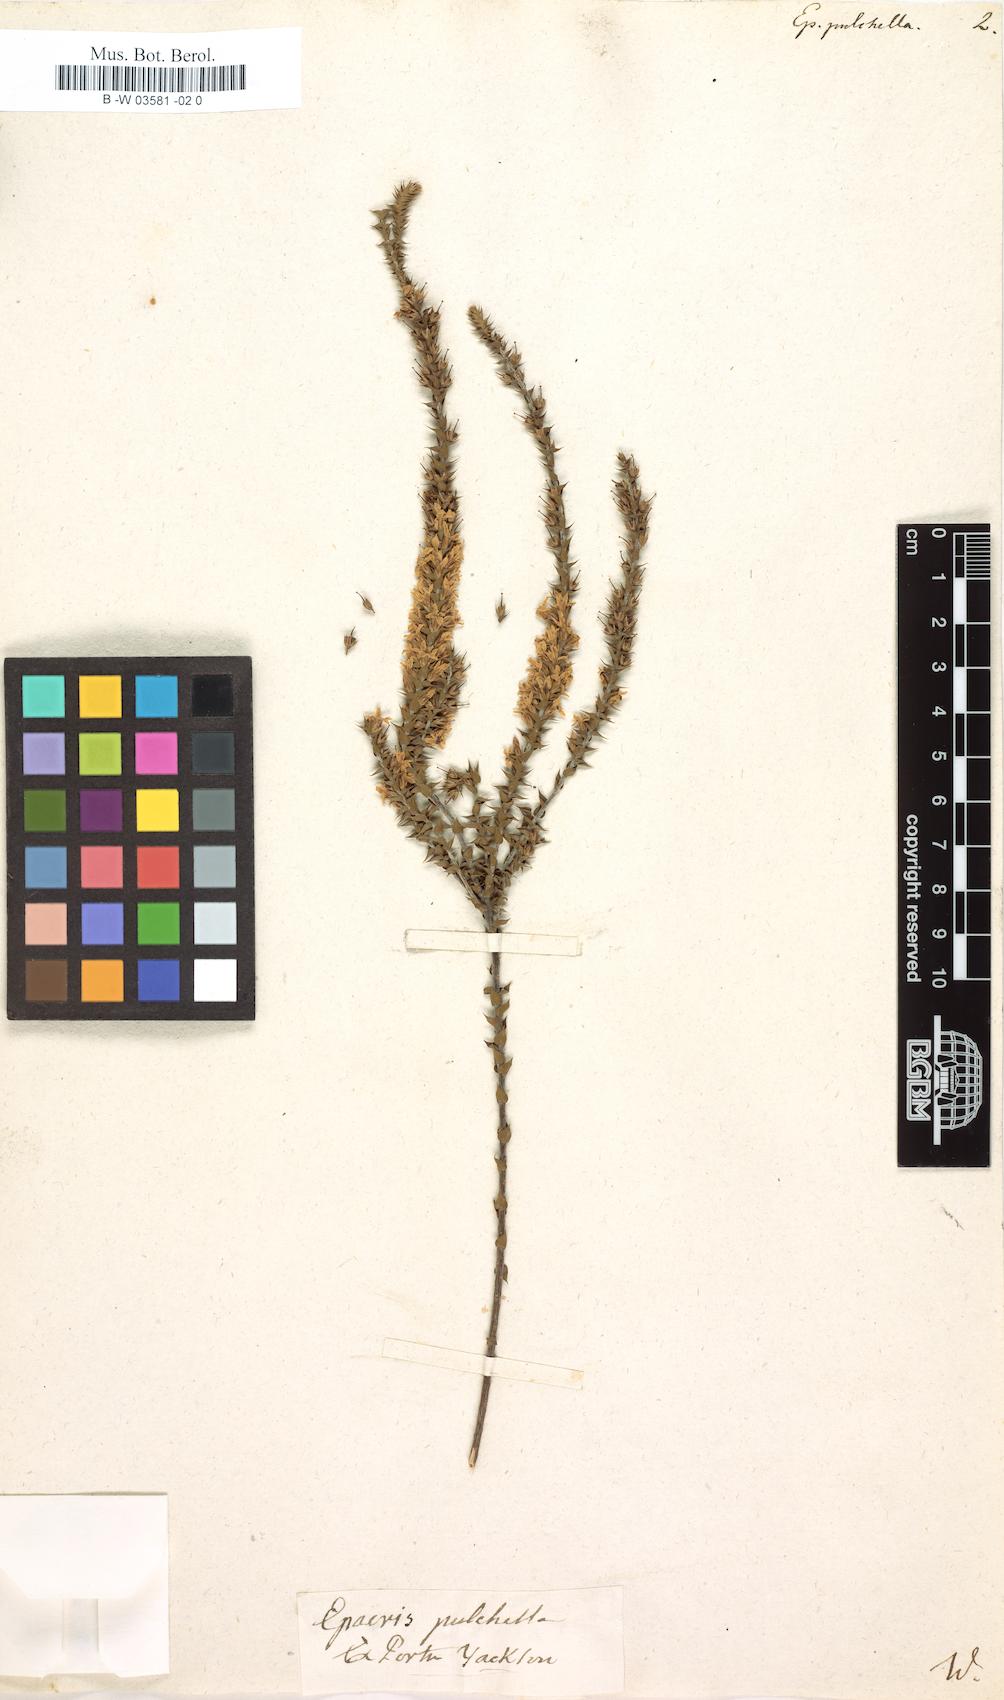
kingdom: Plantae
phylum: Tracheophyta
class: Magnoliopsida
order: Ericales
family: Ericaceae
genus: Epacris
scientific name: Epacris pulchella
